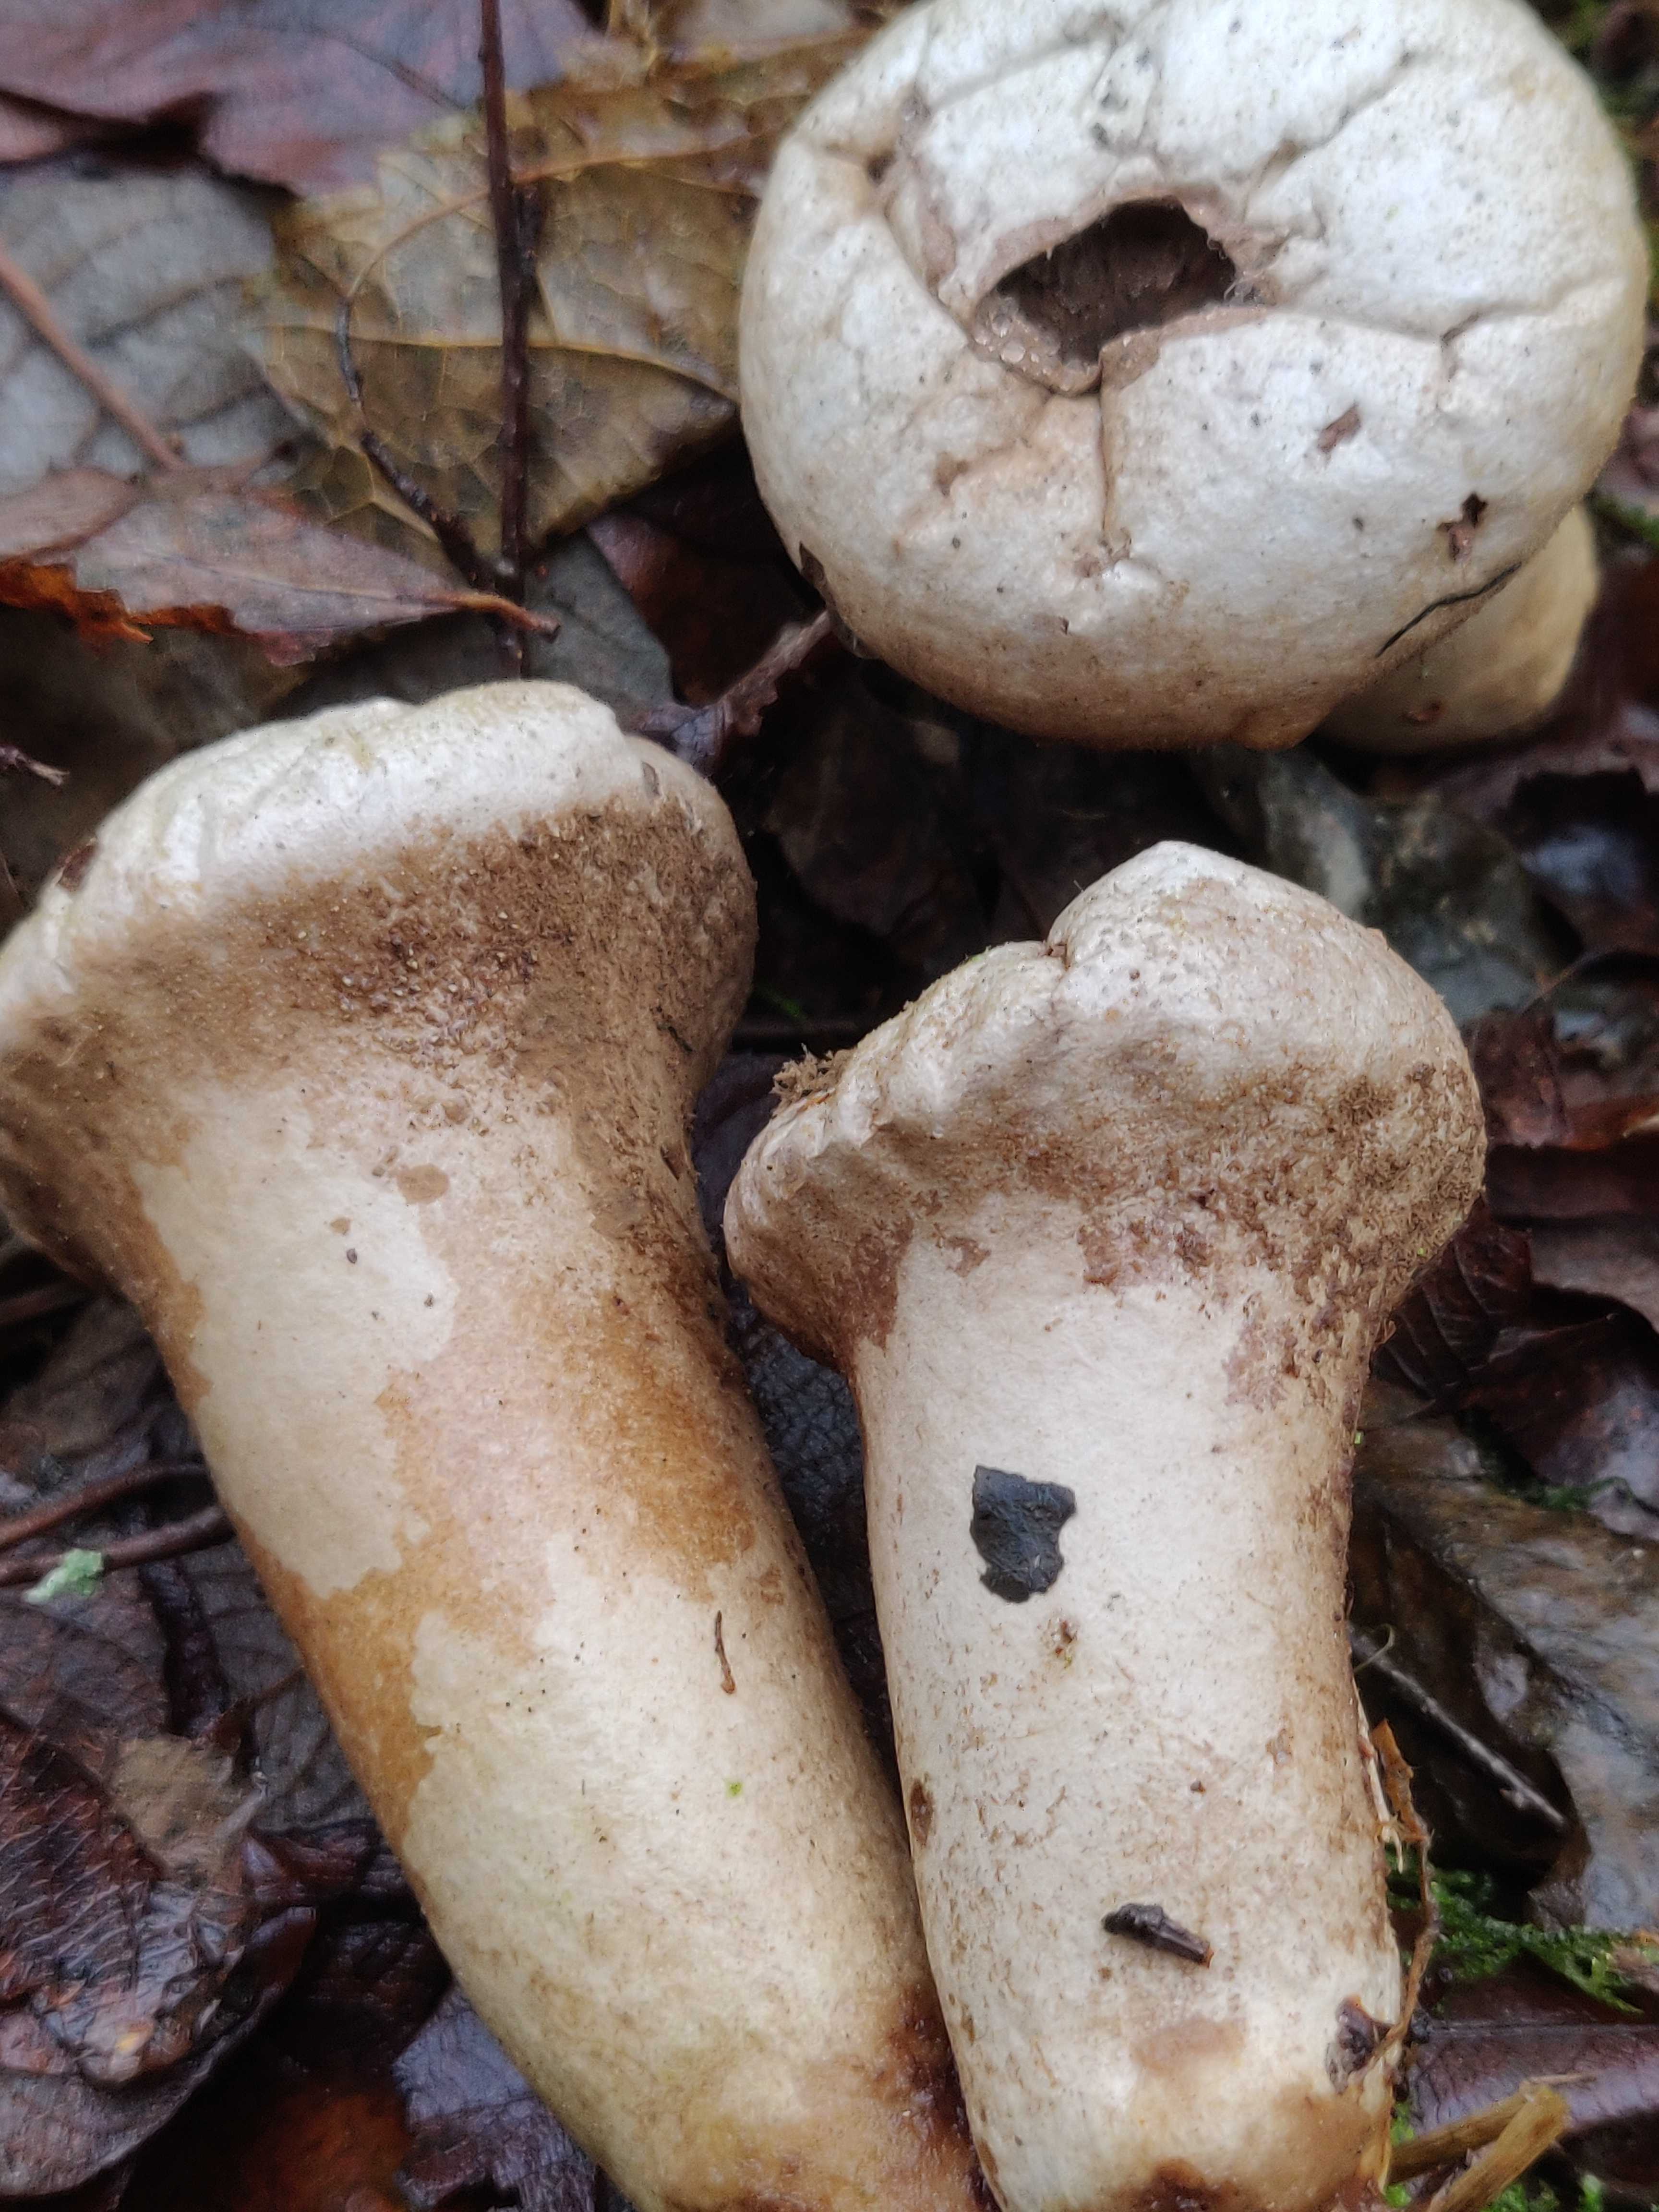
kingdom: Fungi
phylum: Basidiomycota
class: Agaricomycetes
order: Agaricales
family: Lycoperdaceae
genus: Lycoperdon
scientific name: Lycoperdon excipuliforme
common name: højstokket støvbold
